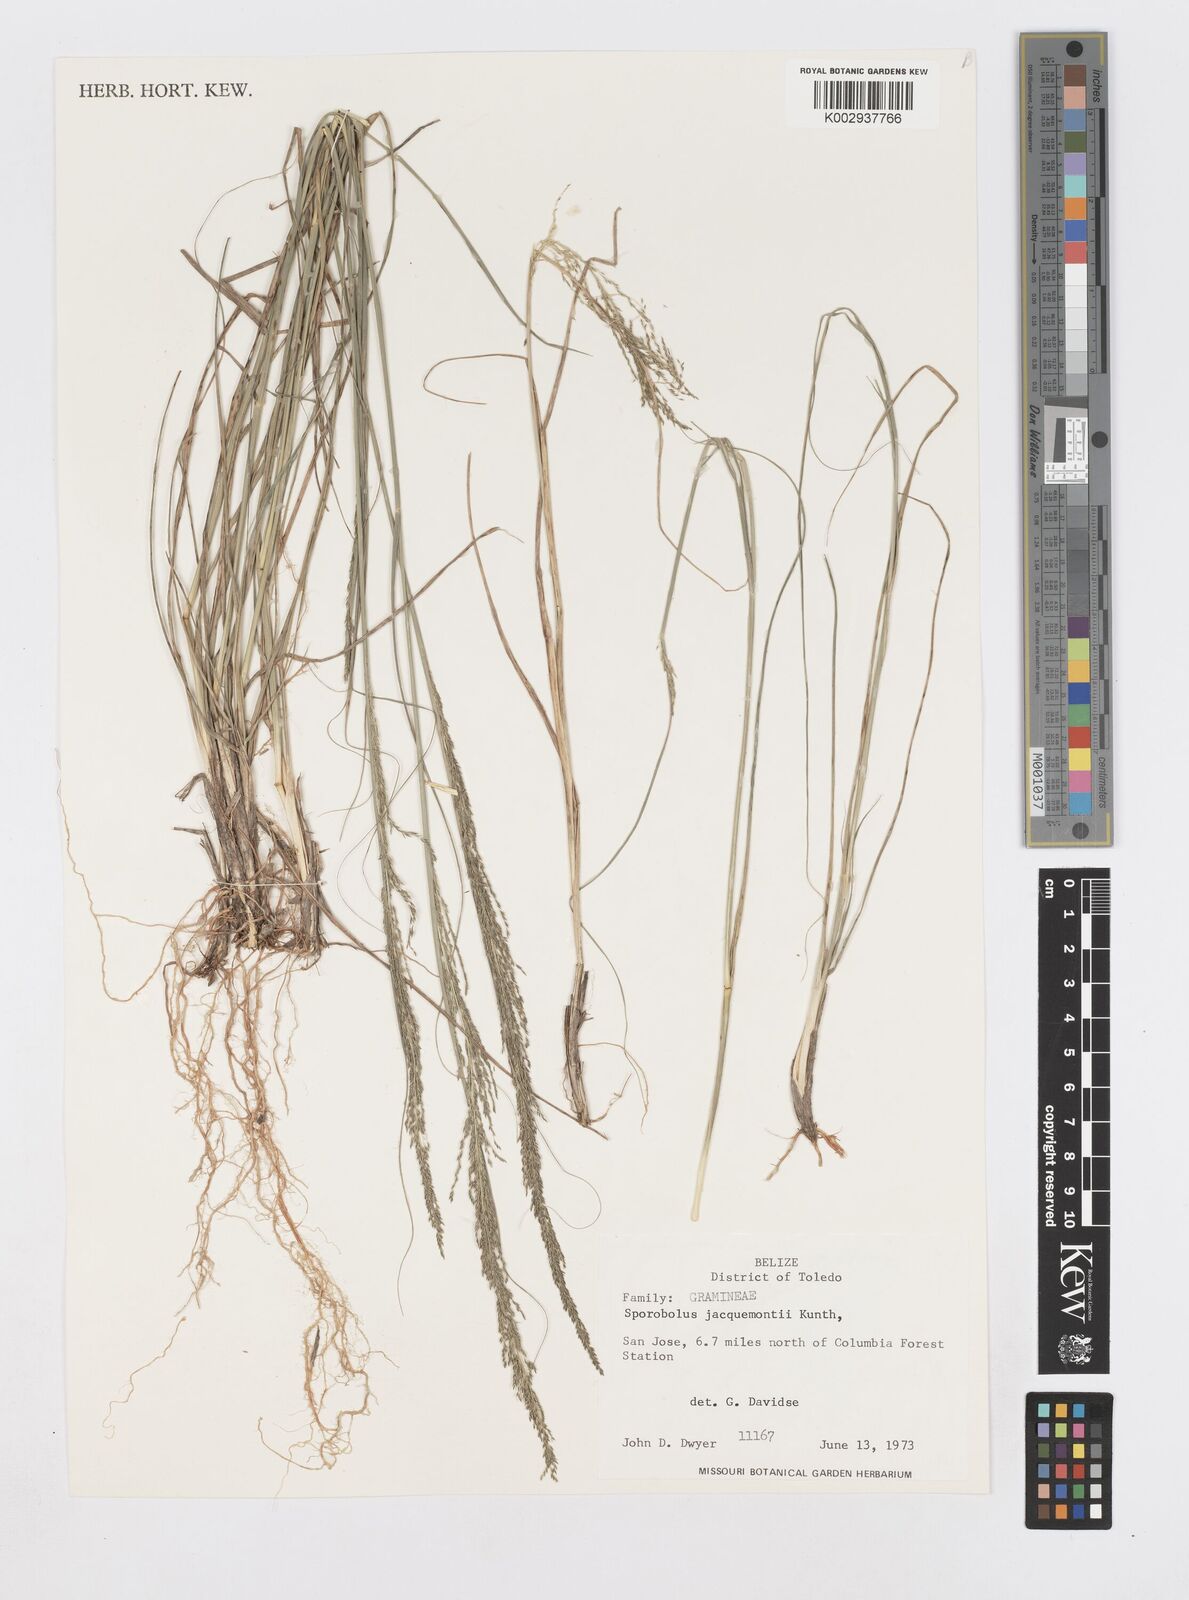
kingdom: Plantae
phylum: Tracheophyta
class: Liliopsida
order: Poales
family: Poaceae
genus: Sporobolus
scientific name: Sporobolus pyramidalis
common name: West indian dropseed
